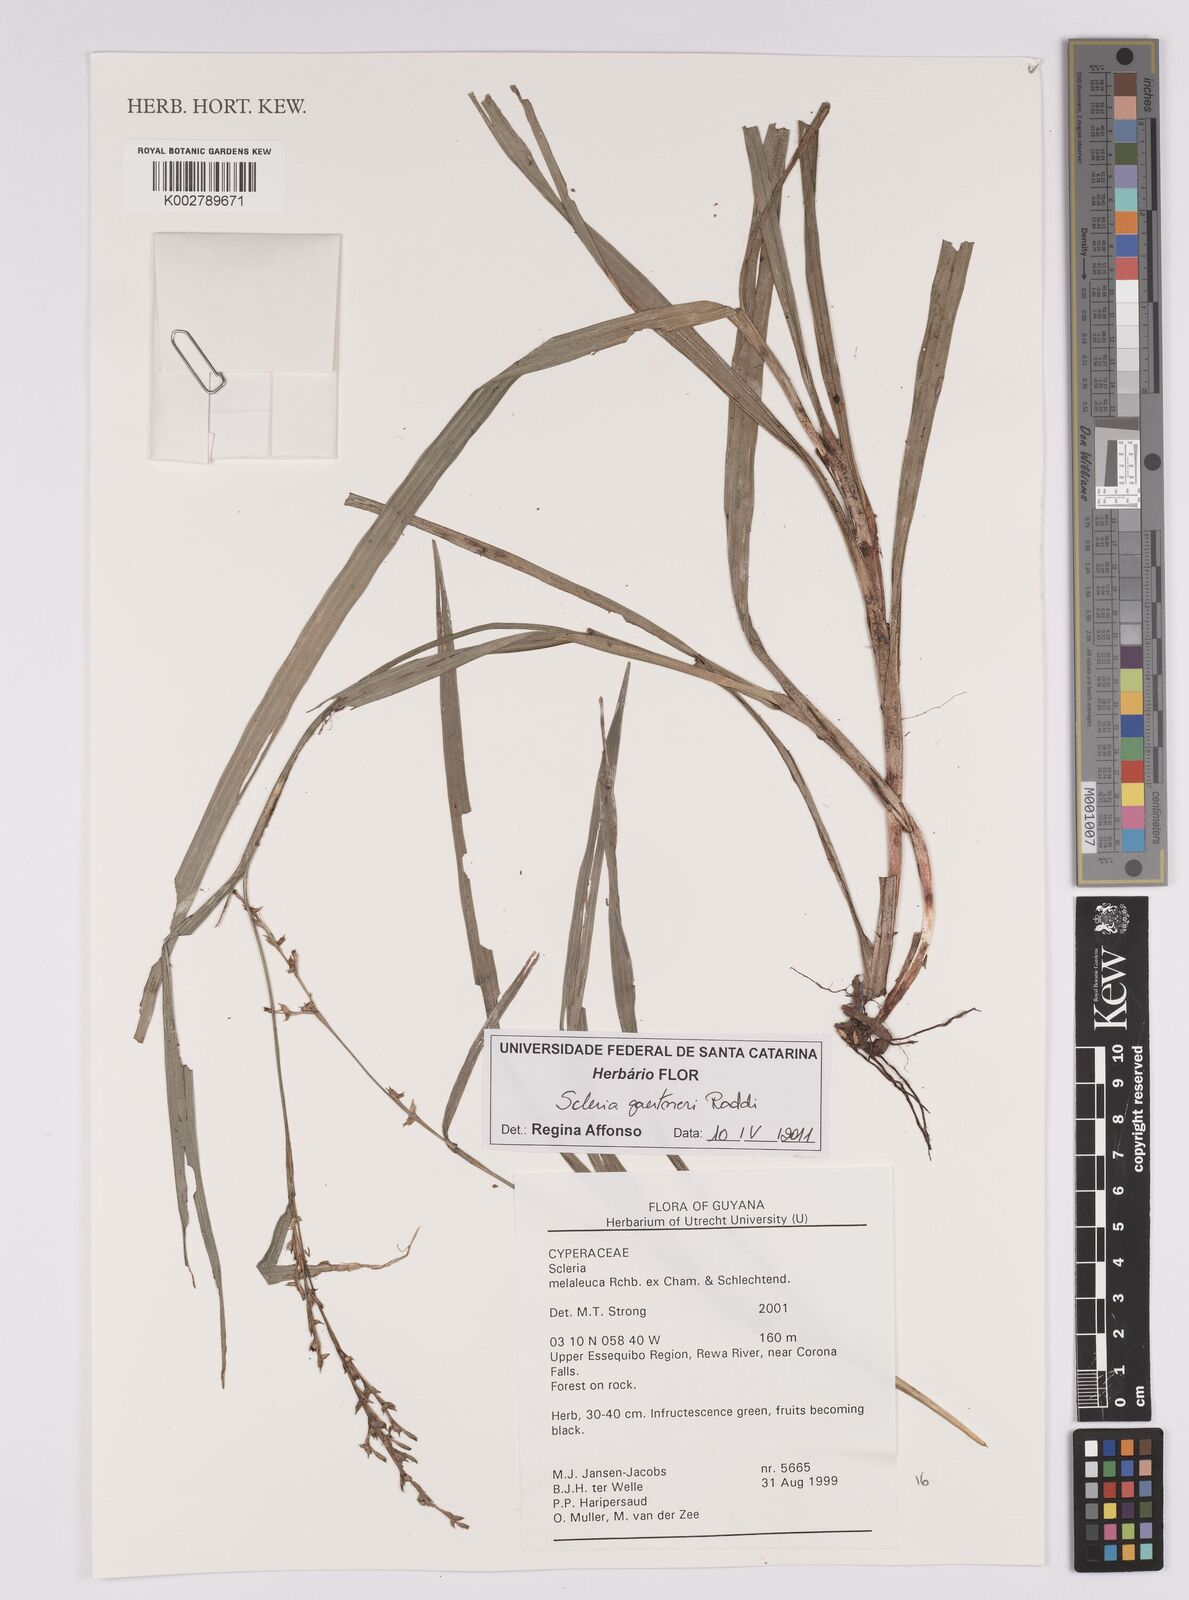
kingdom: Plantae
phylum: Tracheophyta
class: Liliopsida
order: Poales
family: Cyperaceae
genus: Scleria
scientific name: Scleria gaertneri
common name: Cortadera blanca
